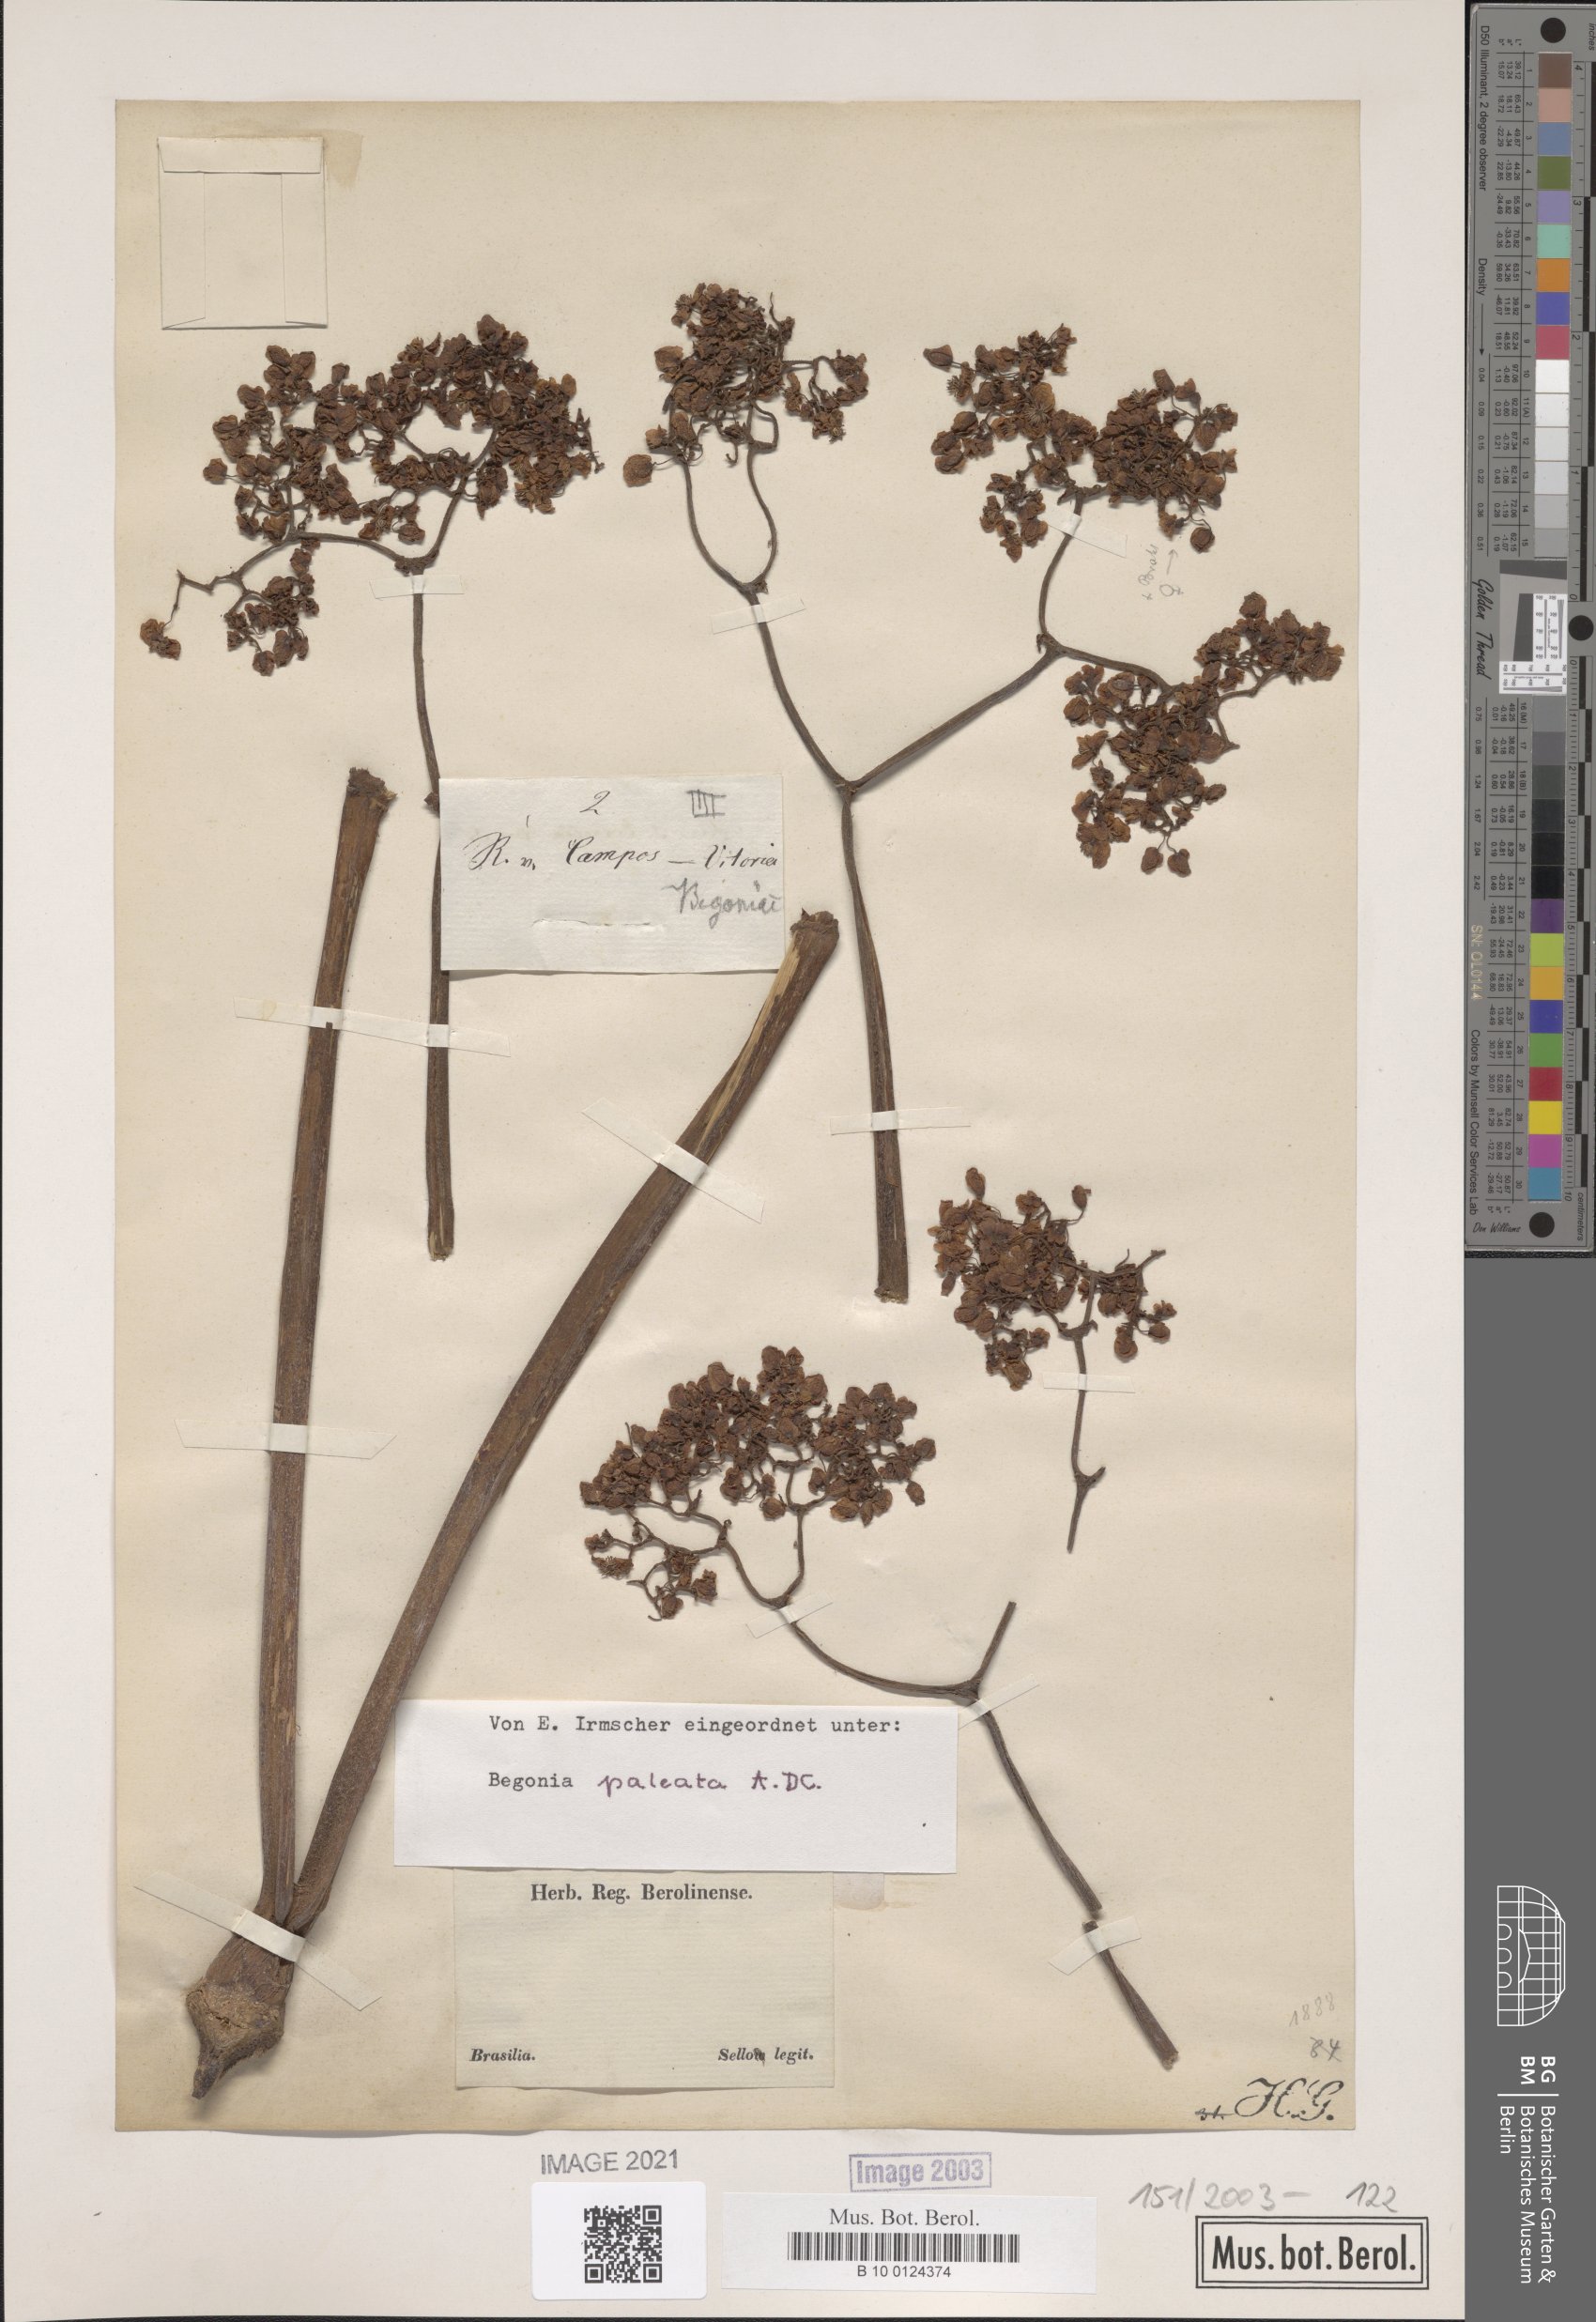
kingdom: Plantae
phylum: Tracheophyta
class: Magnoliopsida
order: Cucurbitales
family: Begoniaceae
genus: Begonia
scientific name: Begonia paleata
